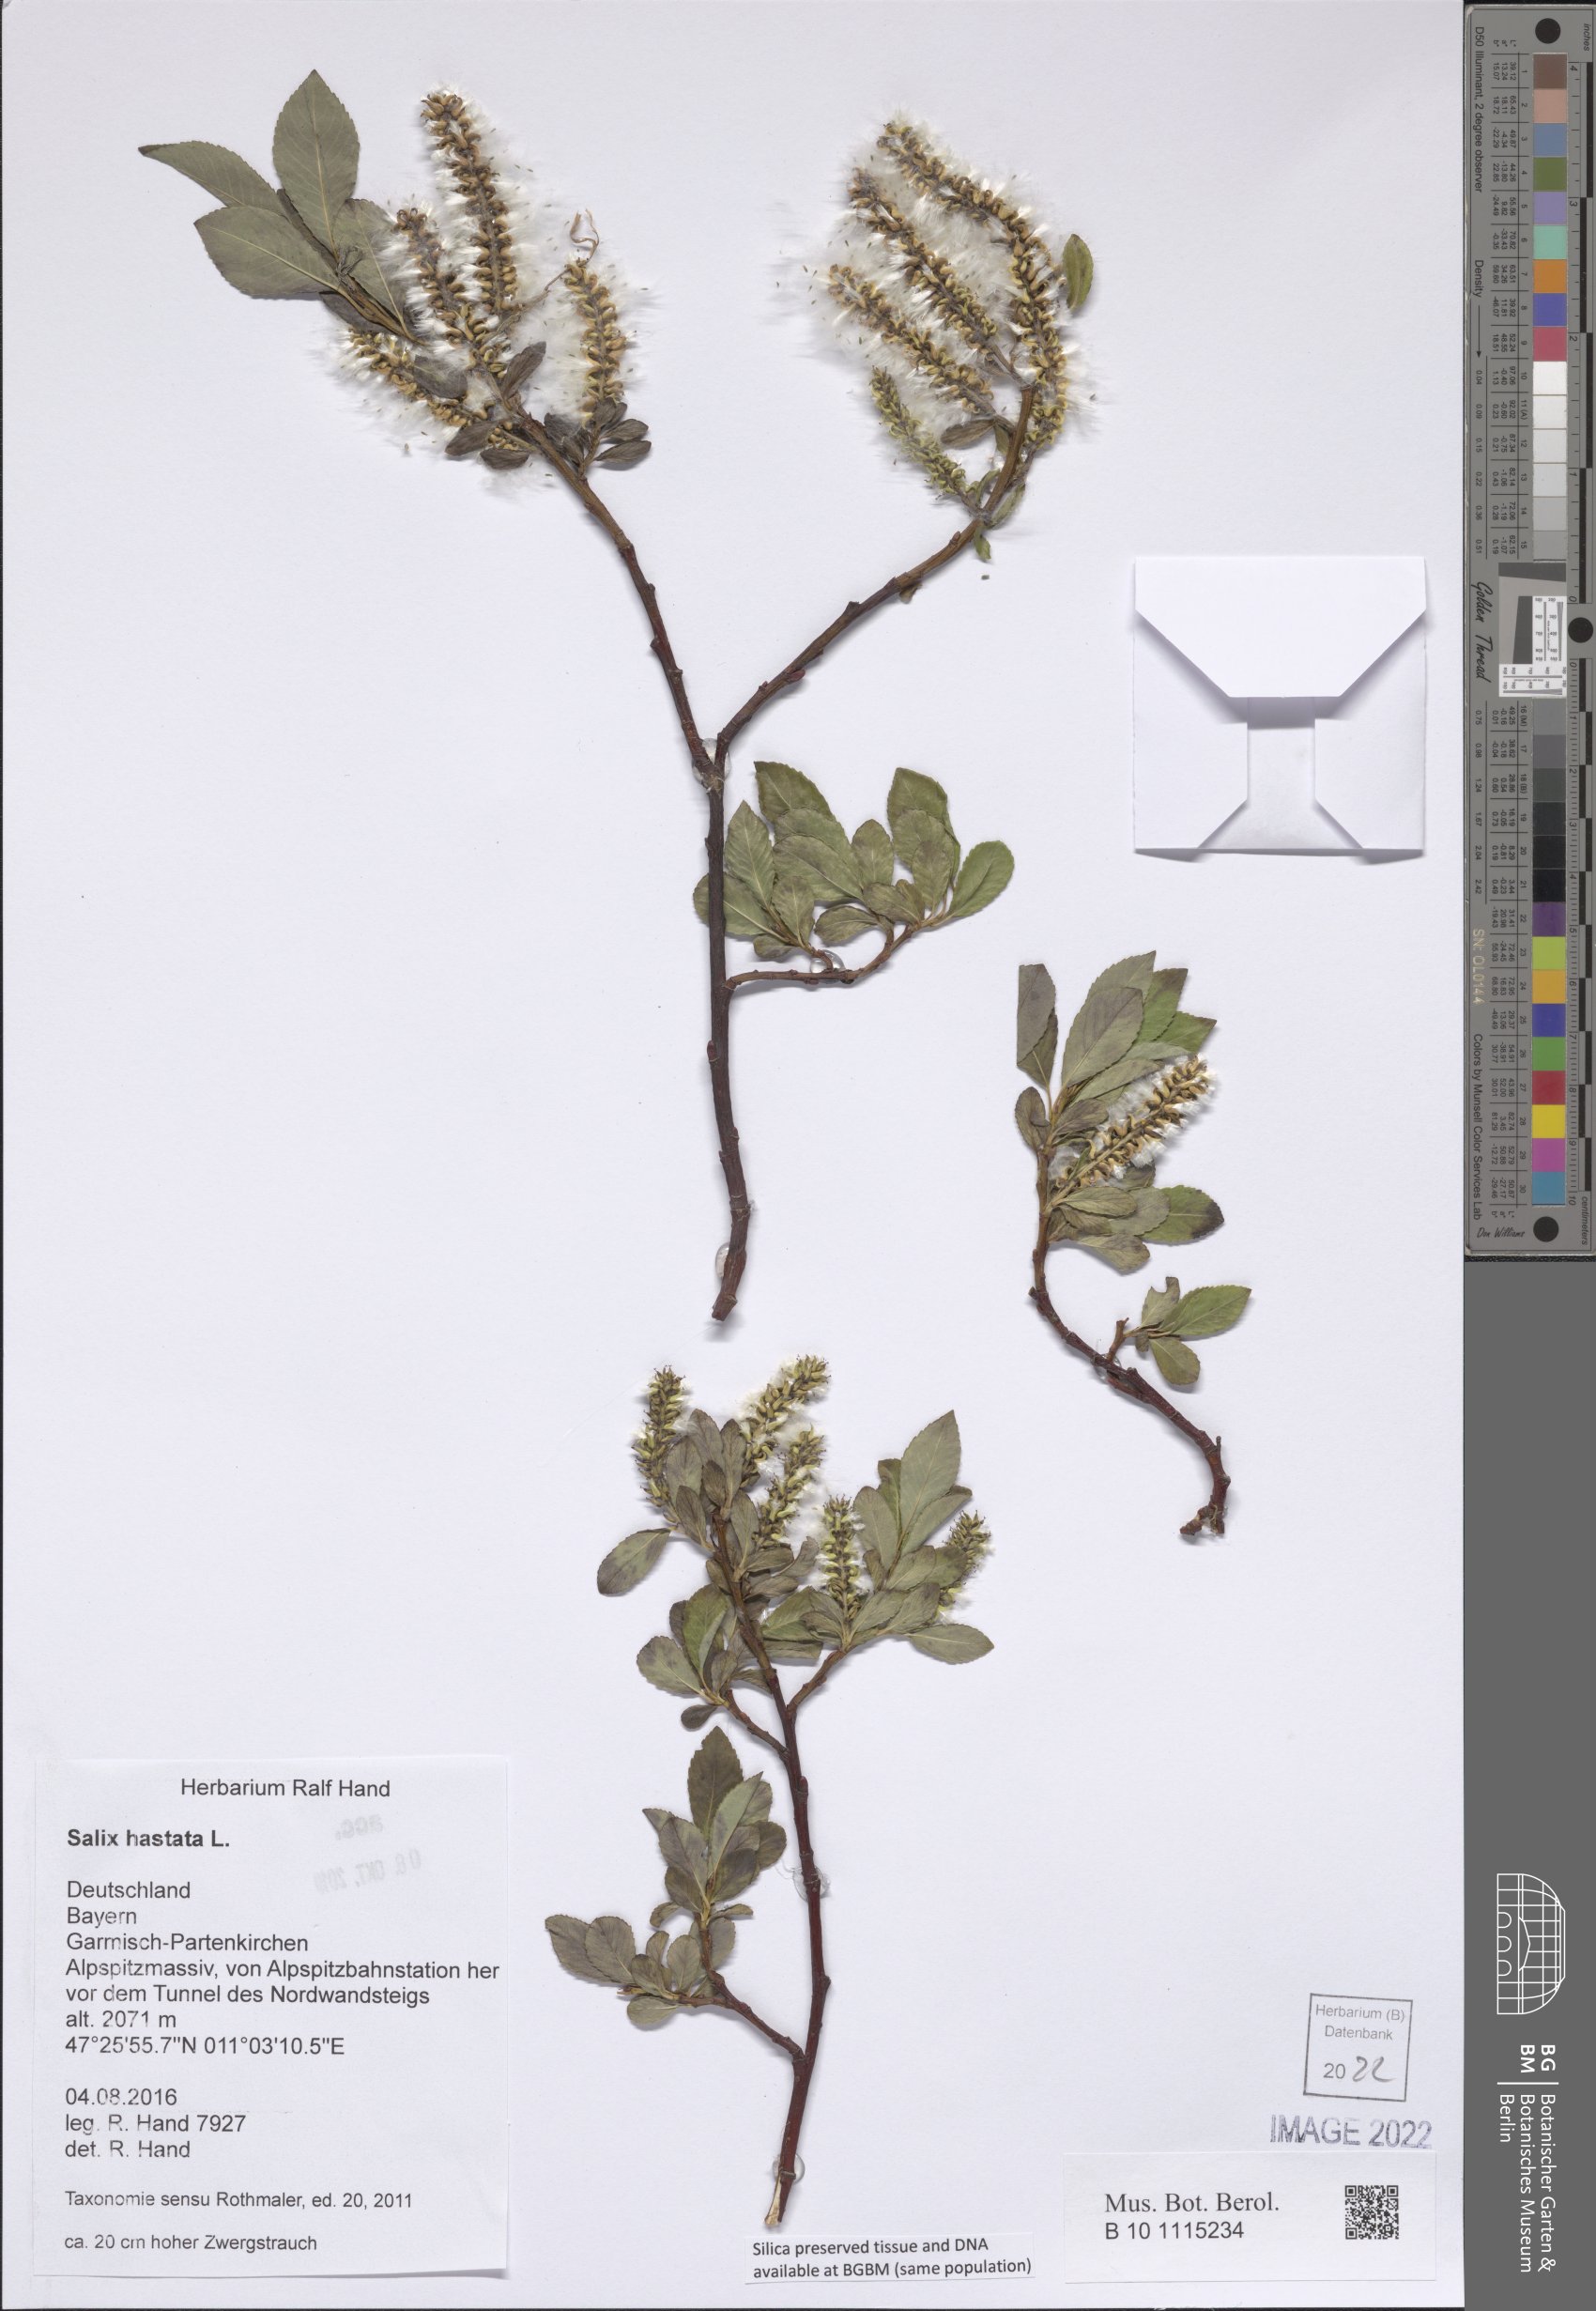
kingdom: Plantae
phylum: Tracheophyta
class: Magnoliopsida
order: Malpighiales
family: Salicaceae
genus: Salix
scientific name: Salix hastata
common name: Halberd willow
